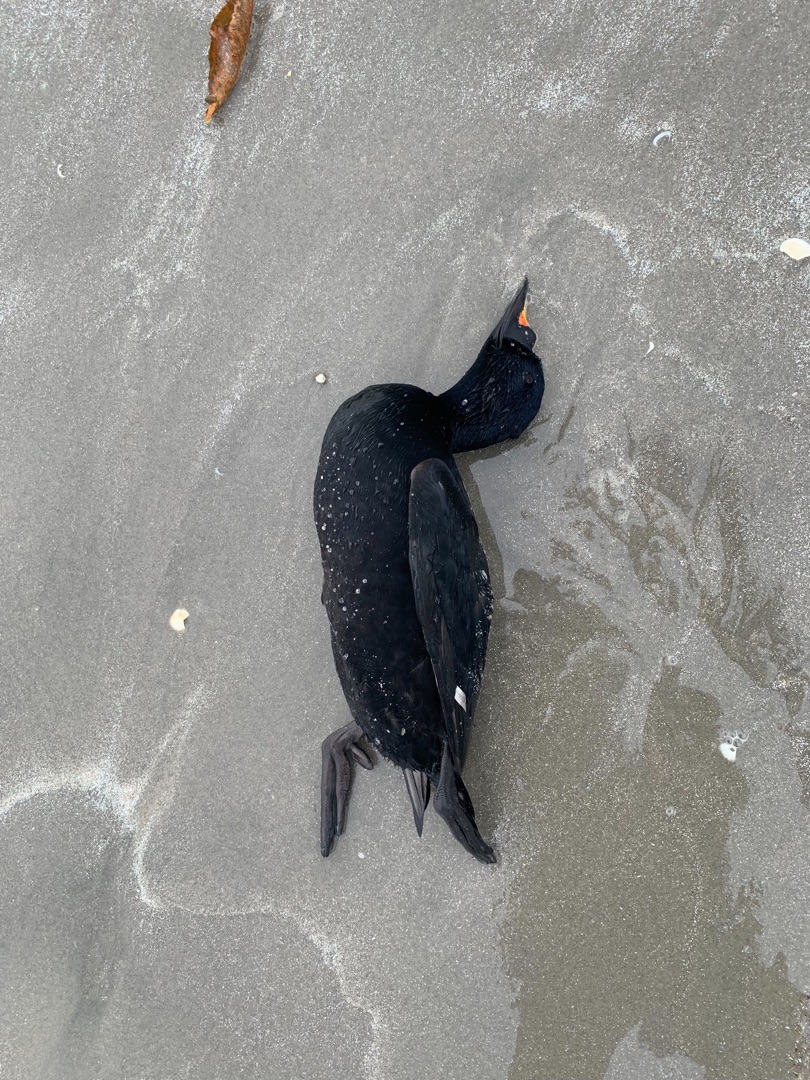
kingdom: Animalia
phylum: Chordata
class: Aves
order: Anseriformes
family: Anatidae
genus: Melanitta
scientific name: Melanitta nigra
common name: Sortand
